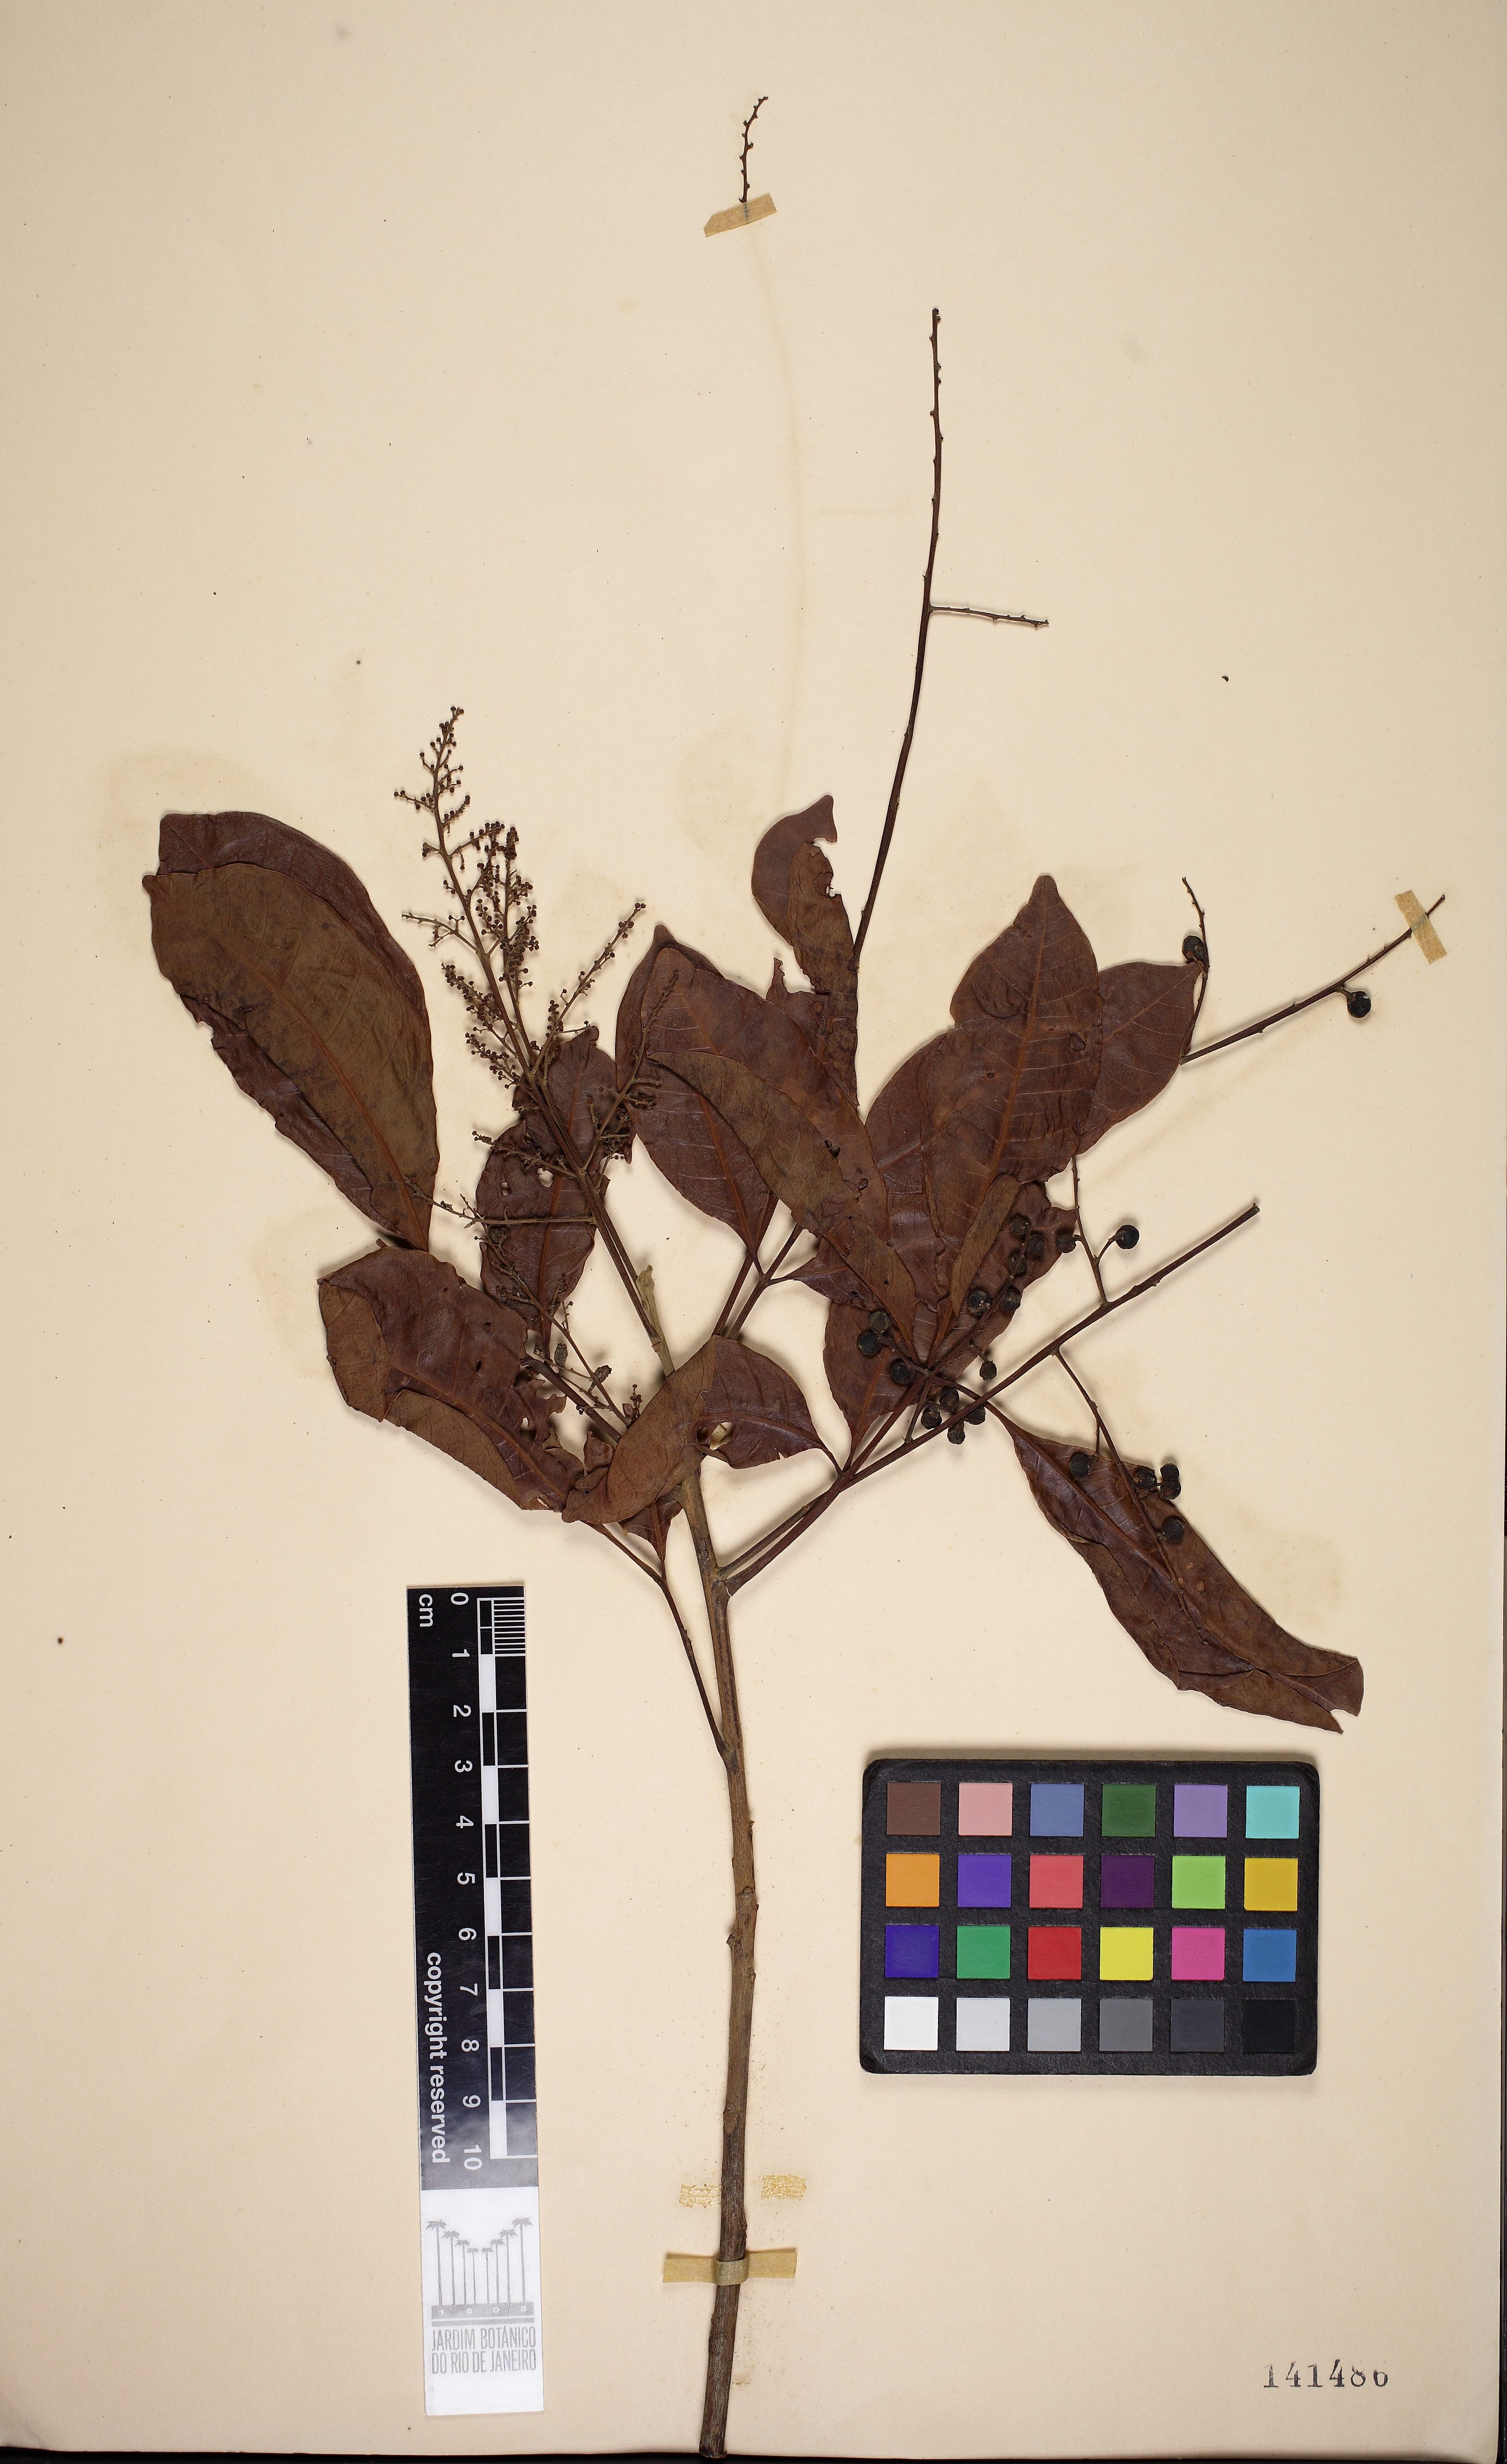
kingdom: Plantae
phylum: Tracheophyta
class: Magnoliopsida
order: Sapindales
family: Anacardiaceae
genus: Tapirira
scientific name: Tapirira guianensis
